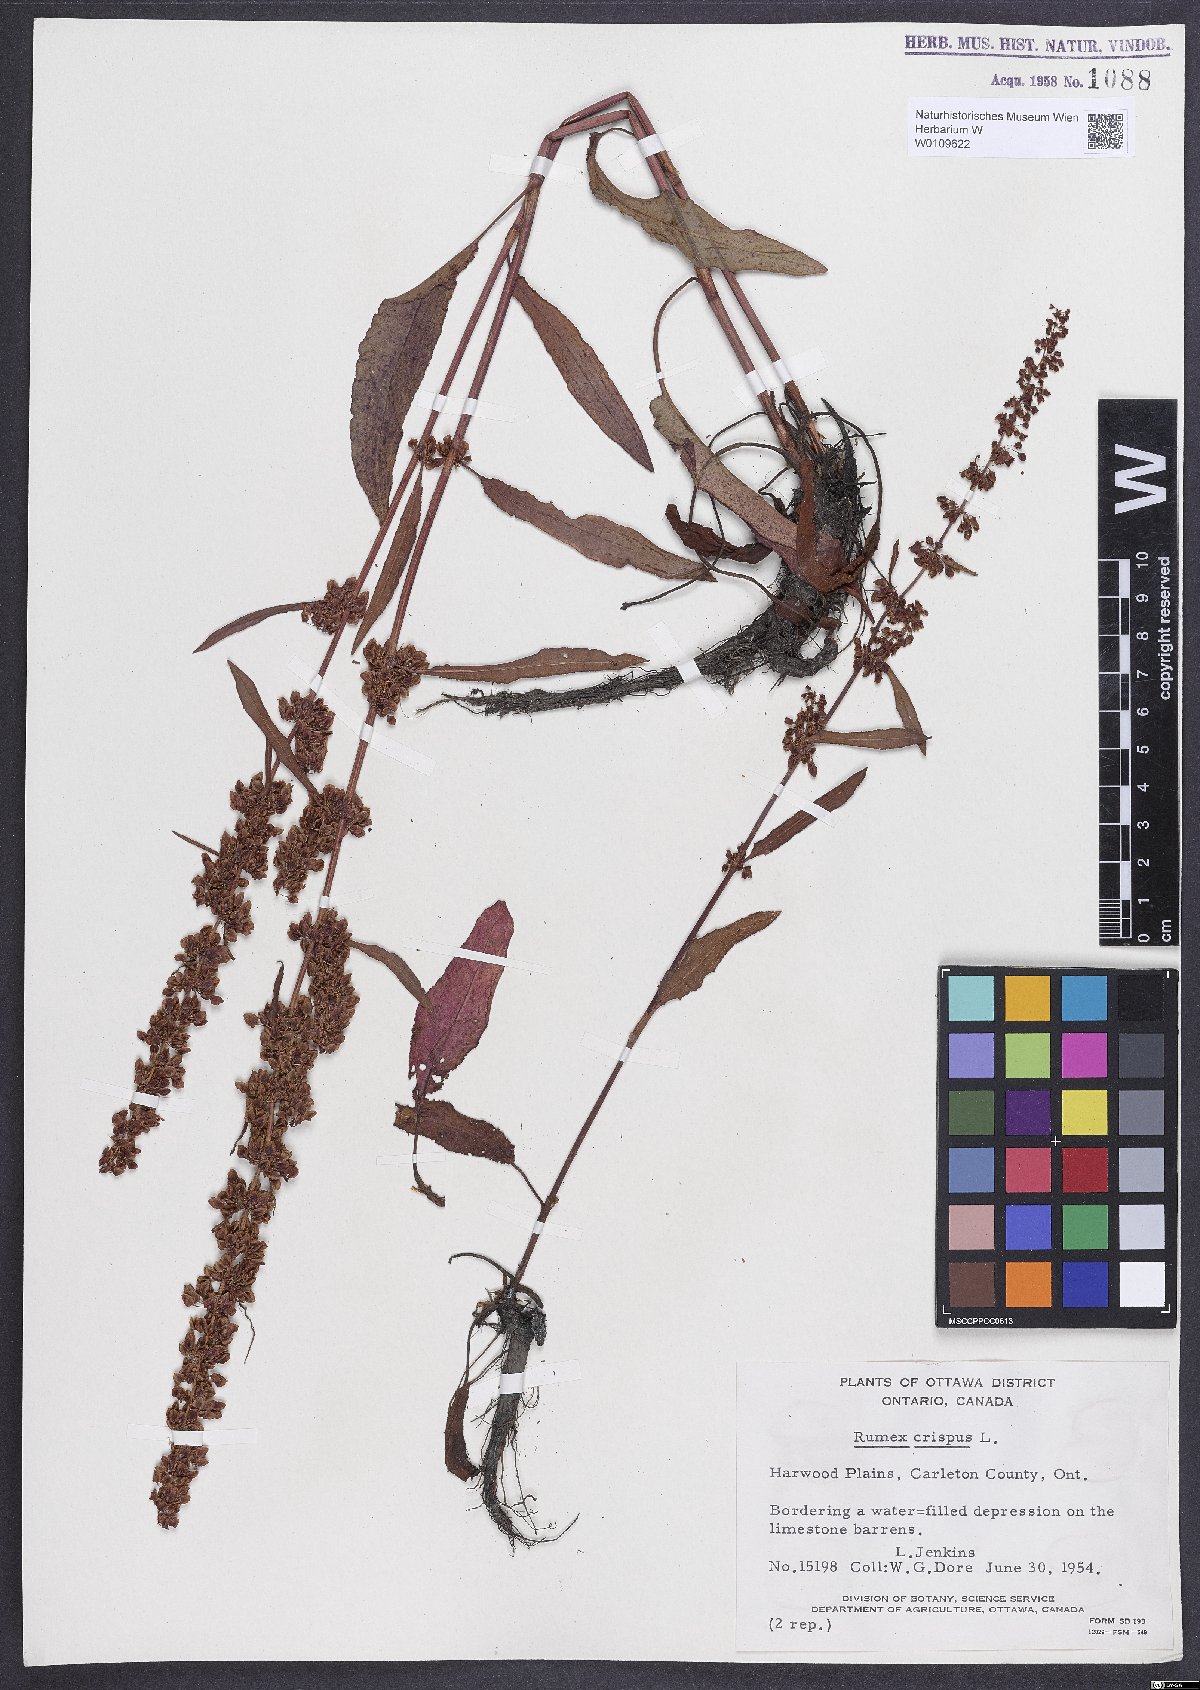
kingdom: Plantae
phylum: Tracheophyta
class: Magnoliopsida
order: Caryophyllales
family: Polygonaceae
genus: Rumex
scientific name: Rumex crispus
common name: Curled dock
